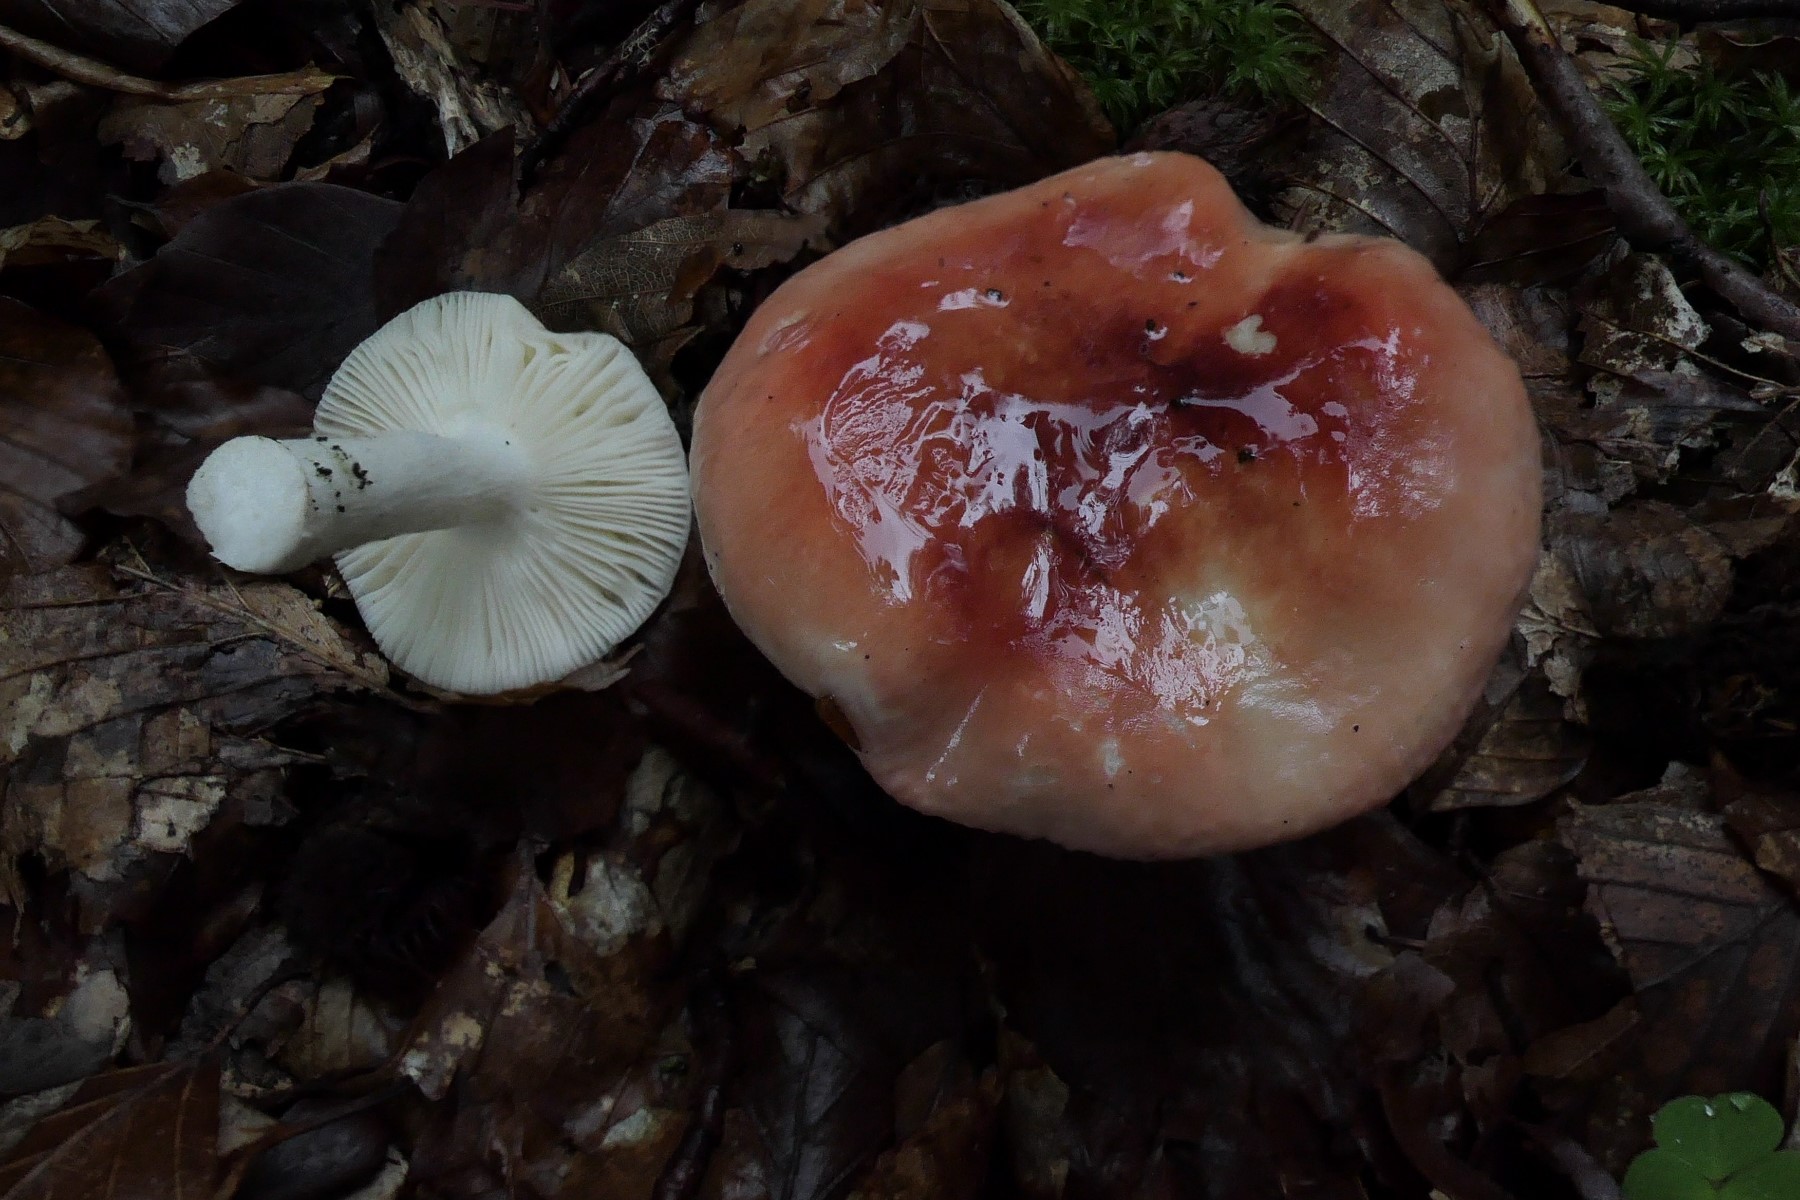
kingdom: Fungi
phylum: Basidiomycota
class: Agaricomycetes
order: Russulales
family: Russulaceae
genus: Russula
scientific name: Russula aurora
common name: rosa skørhat
